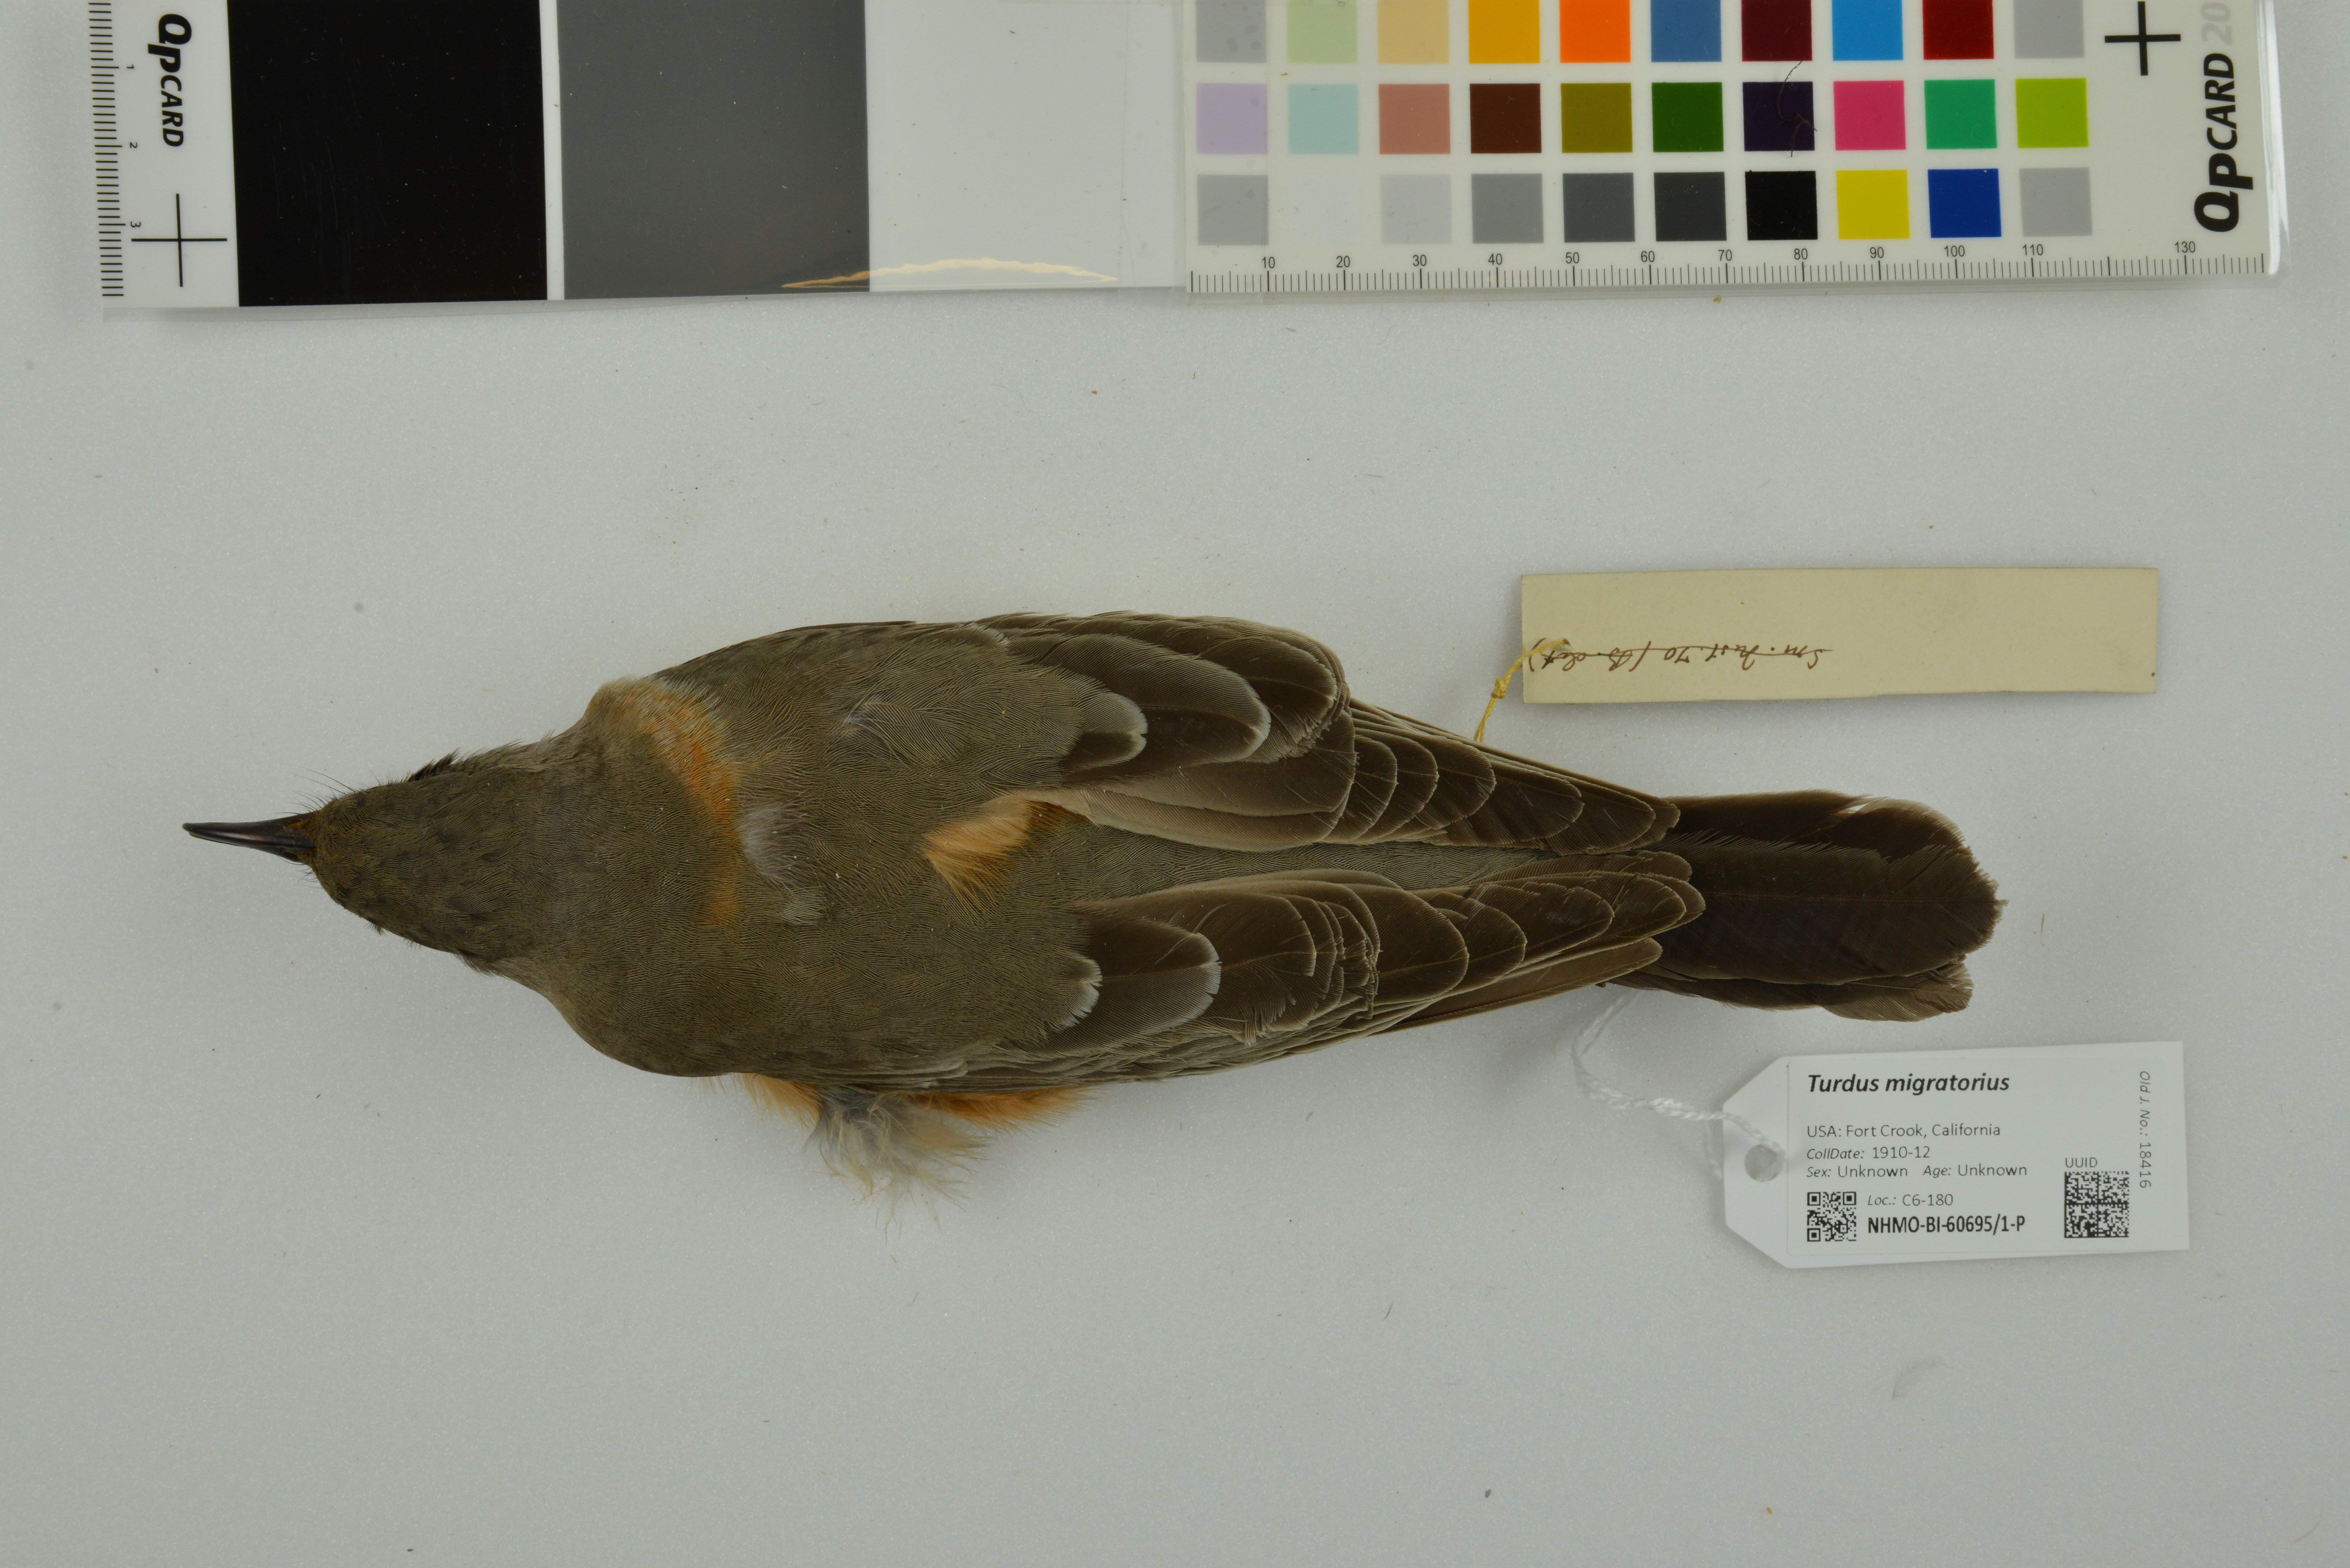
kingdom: Animalia
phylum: Chordata
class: Aves
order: Passeriformes
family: Turdidae
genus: Turdus
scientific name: Turdus migratorius
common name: American robin
